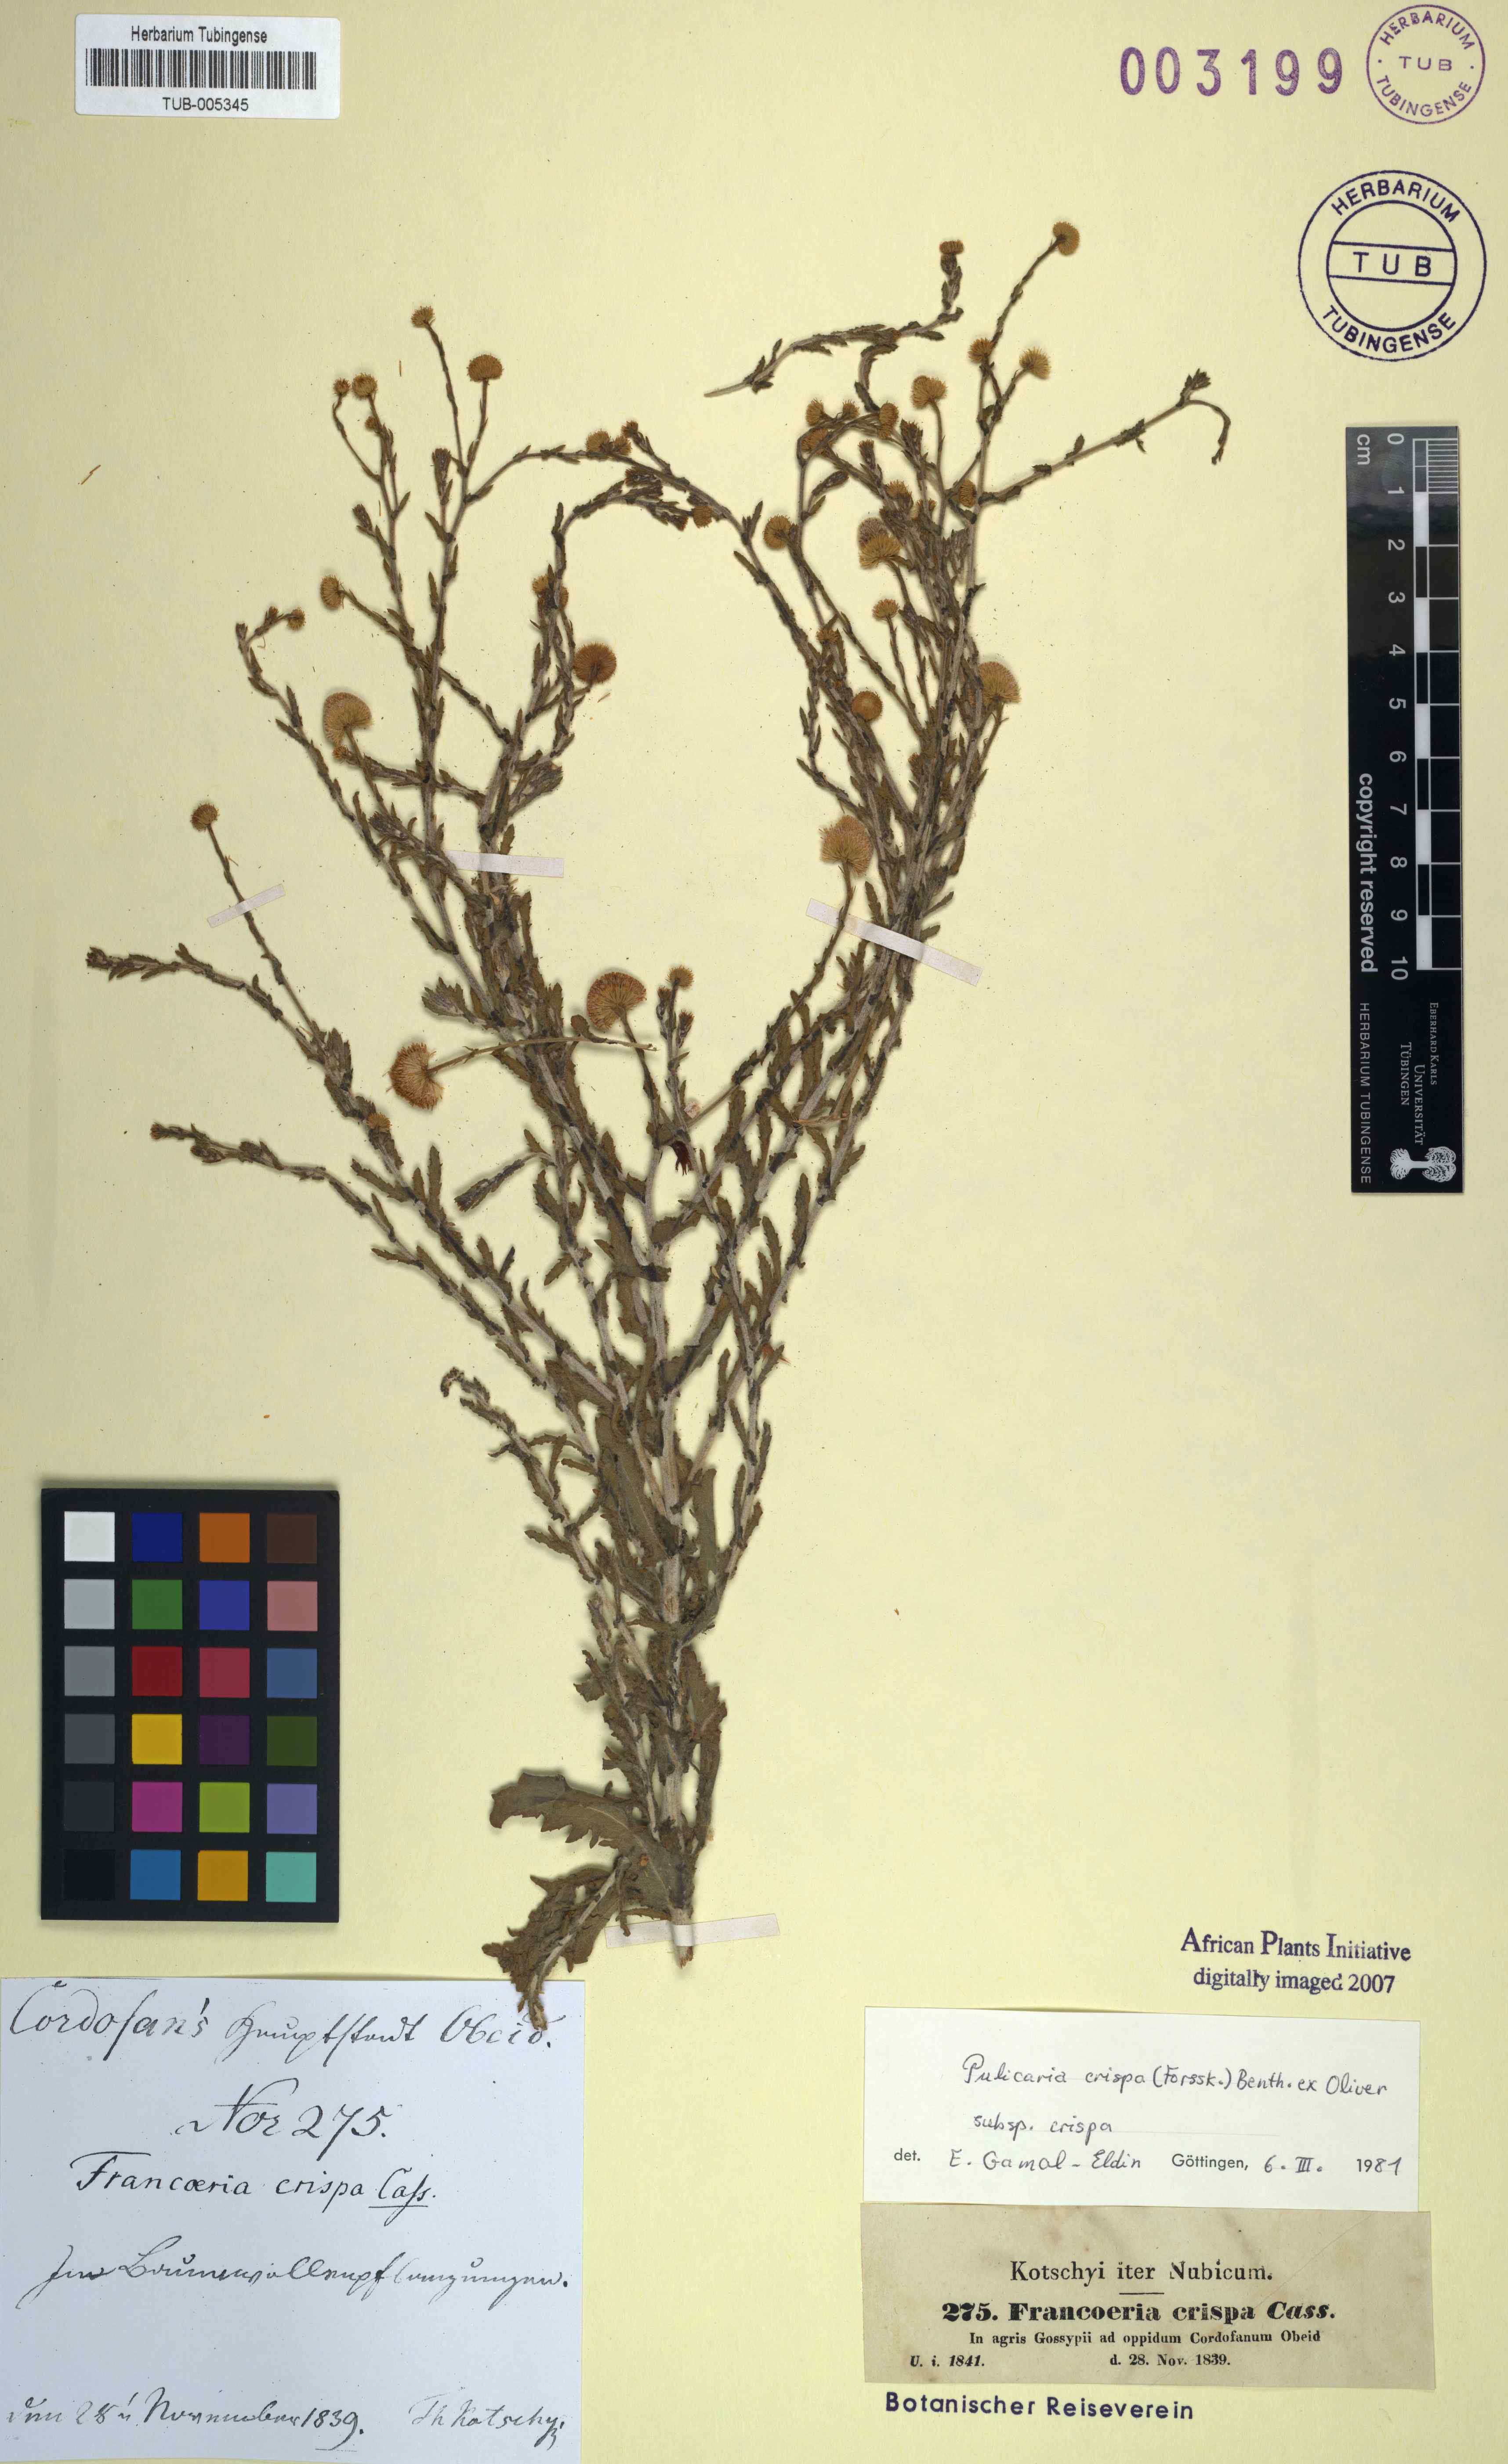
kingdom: Plantae
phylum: Tracheophyta
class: Magnoliopsida
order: Asterales
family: Asteraceae
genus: Pulicaria
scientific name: Pulicaria crispa
